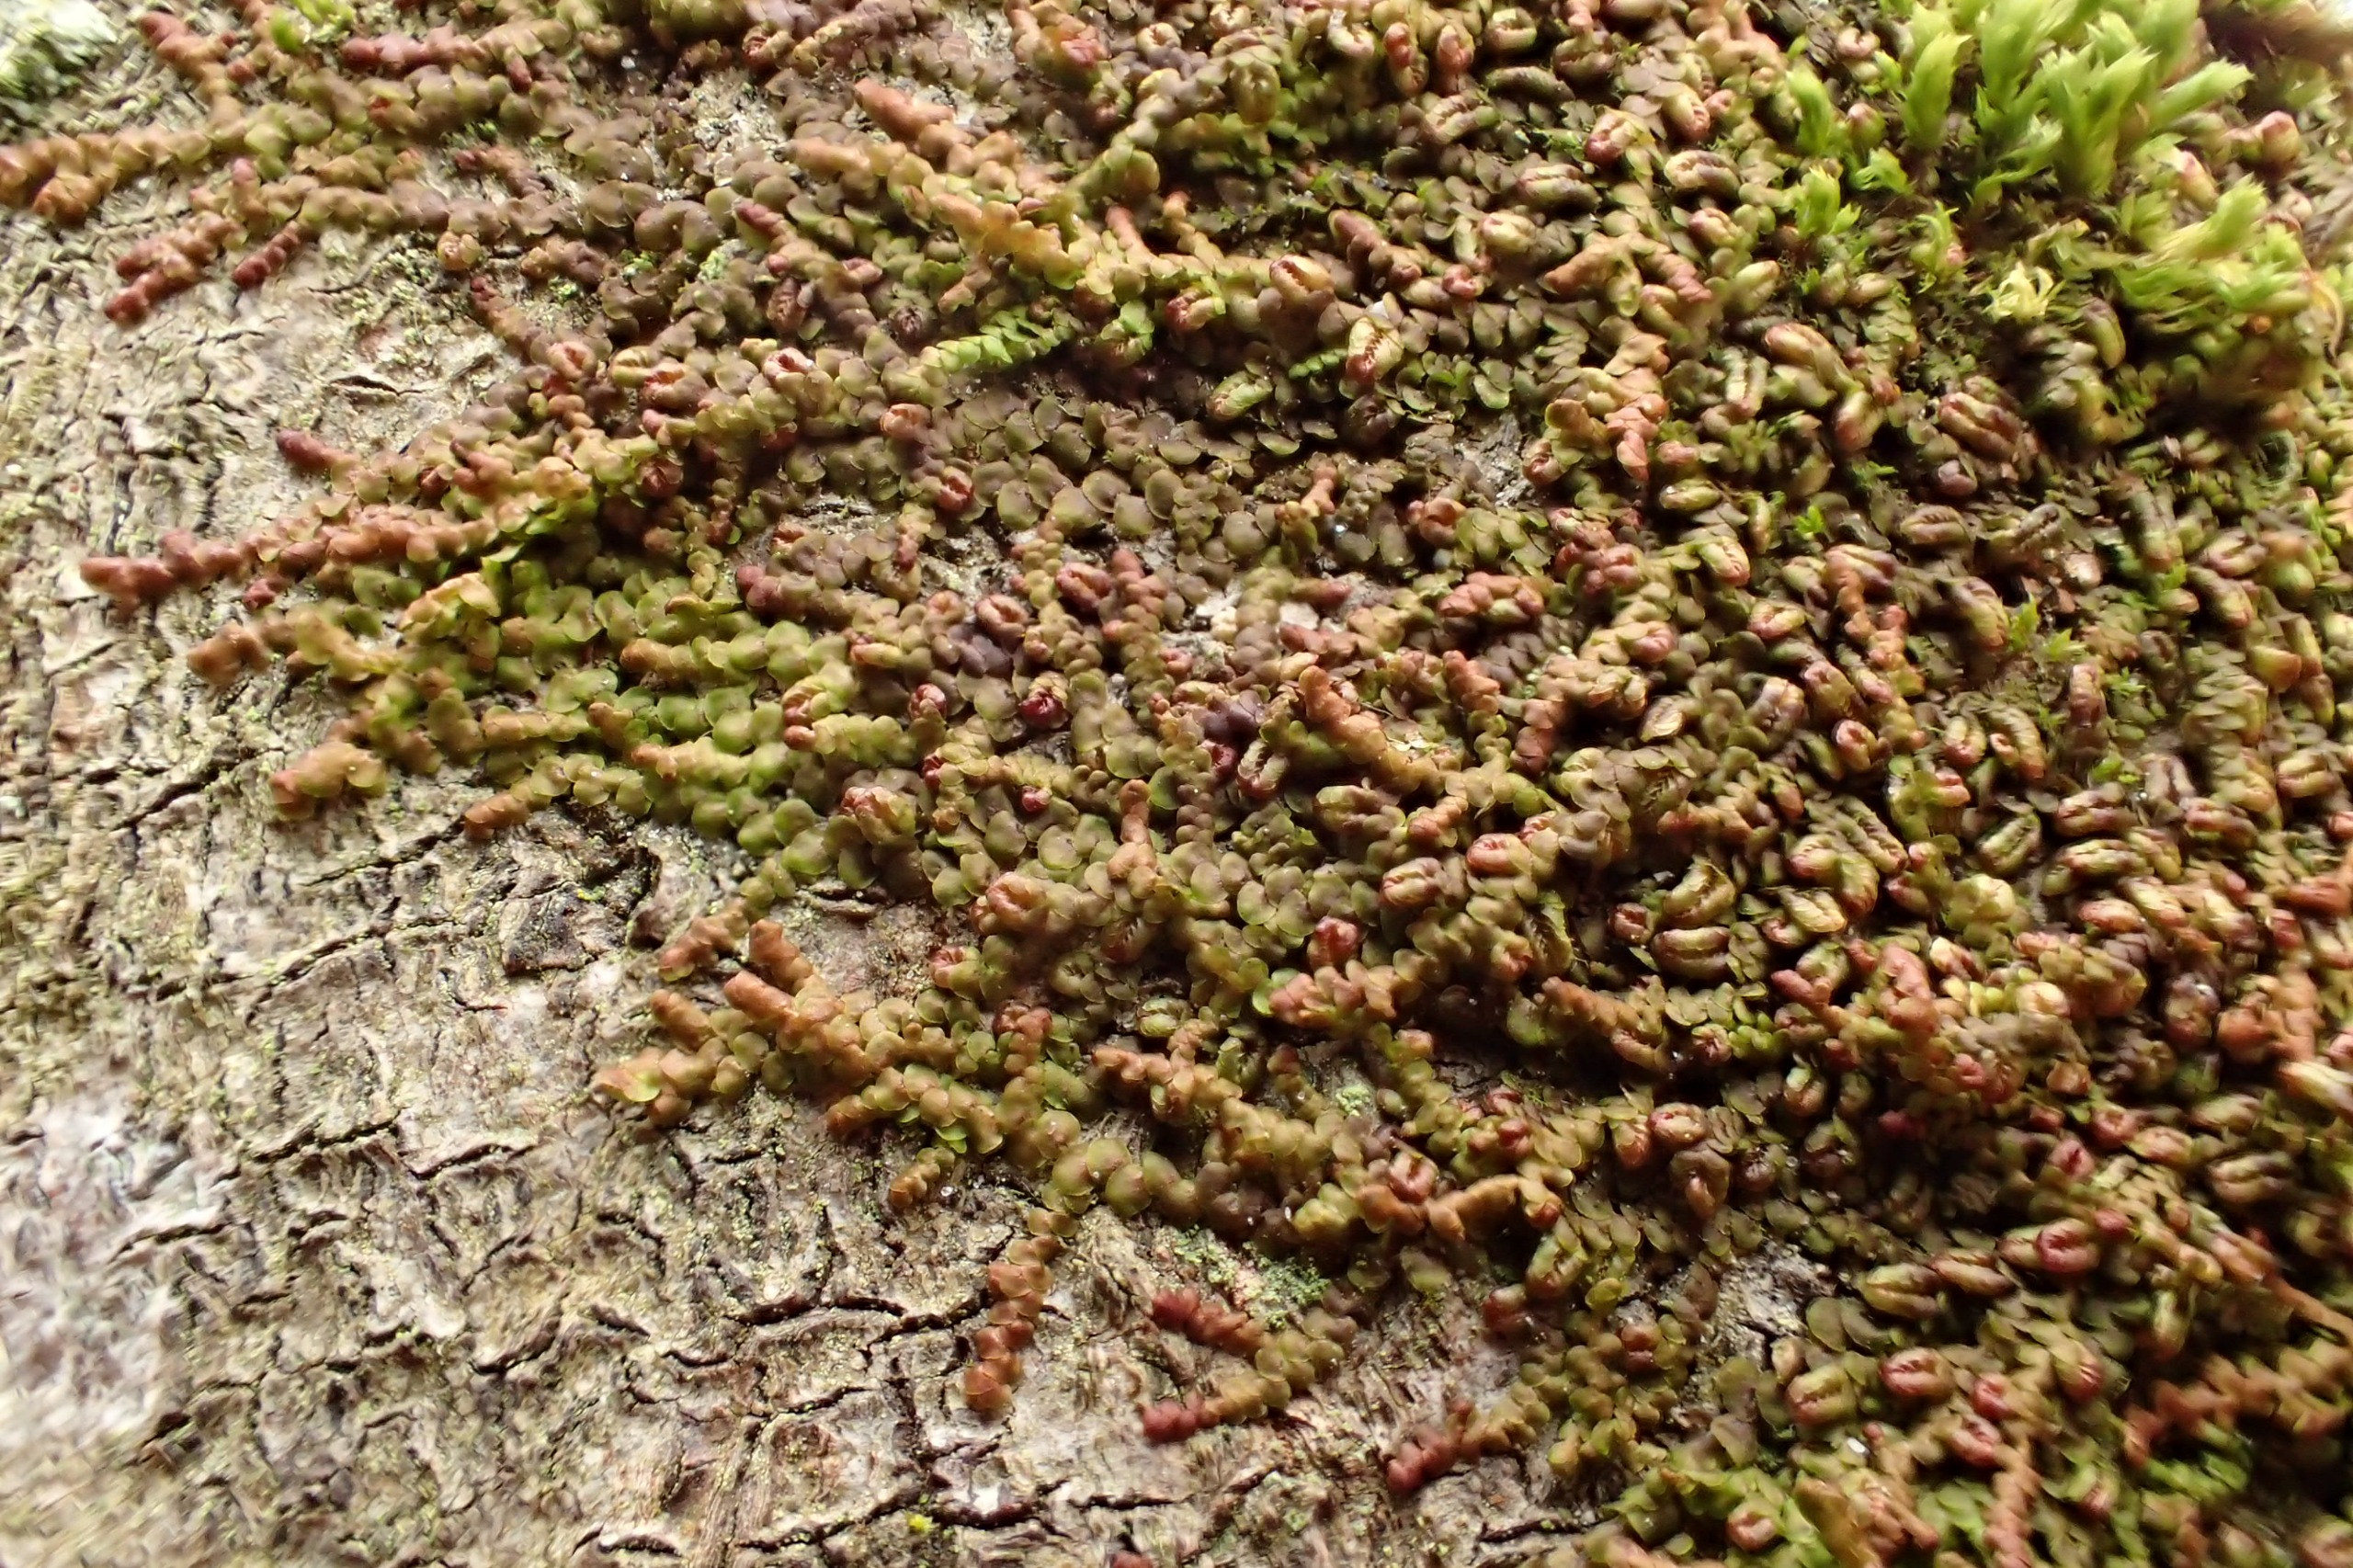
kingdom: Plantae
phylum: Marchantiophyta
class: Jungermanniopsida
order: Porellales
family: Frullaniaceae
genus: Frullania
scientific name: Frullania dilatata
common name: Mat bronzemos
